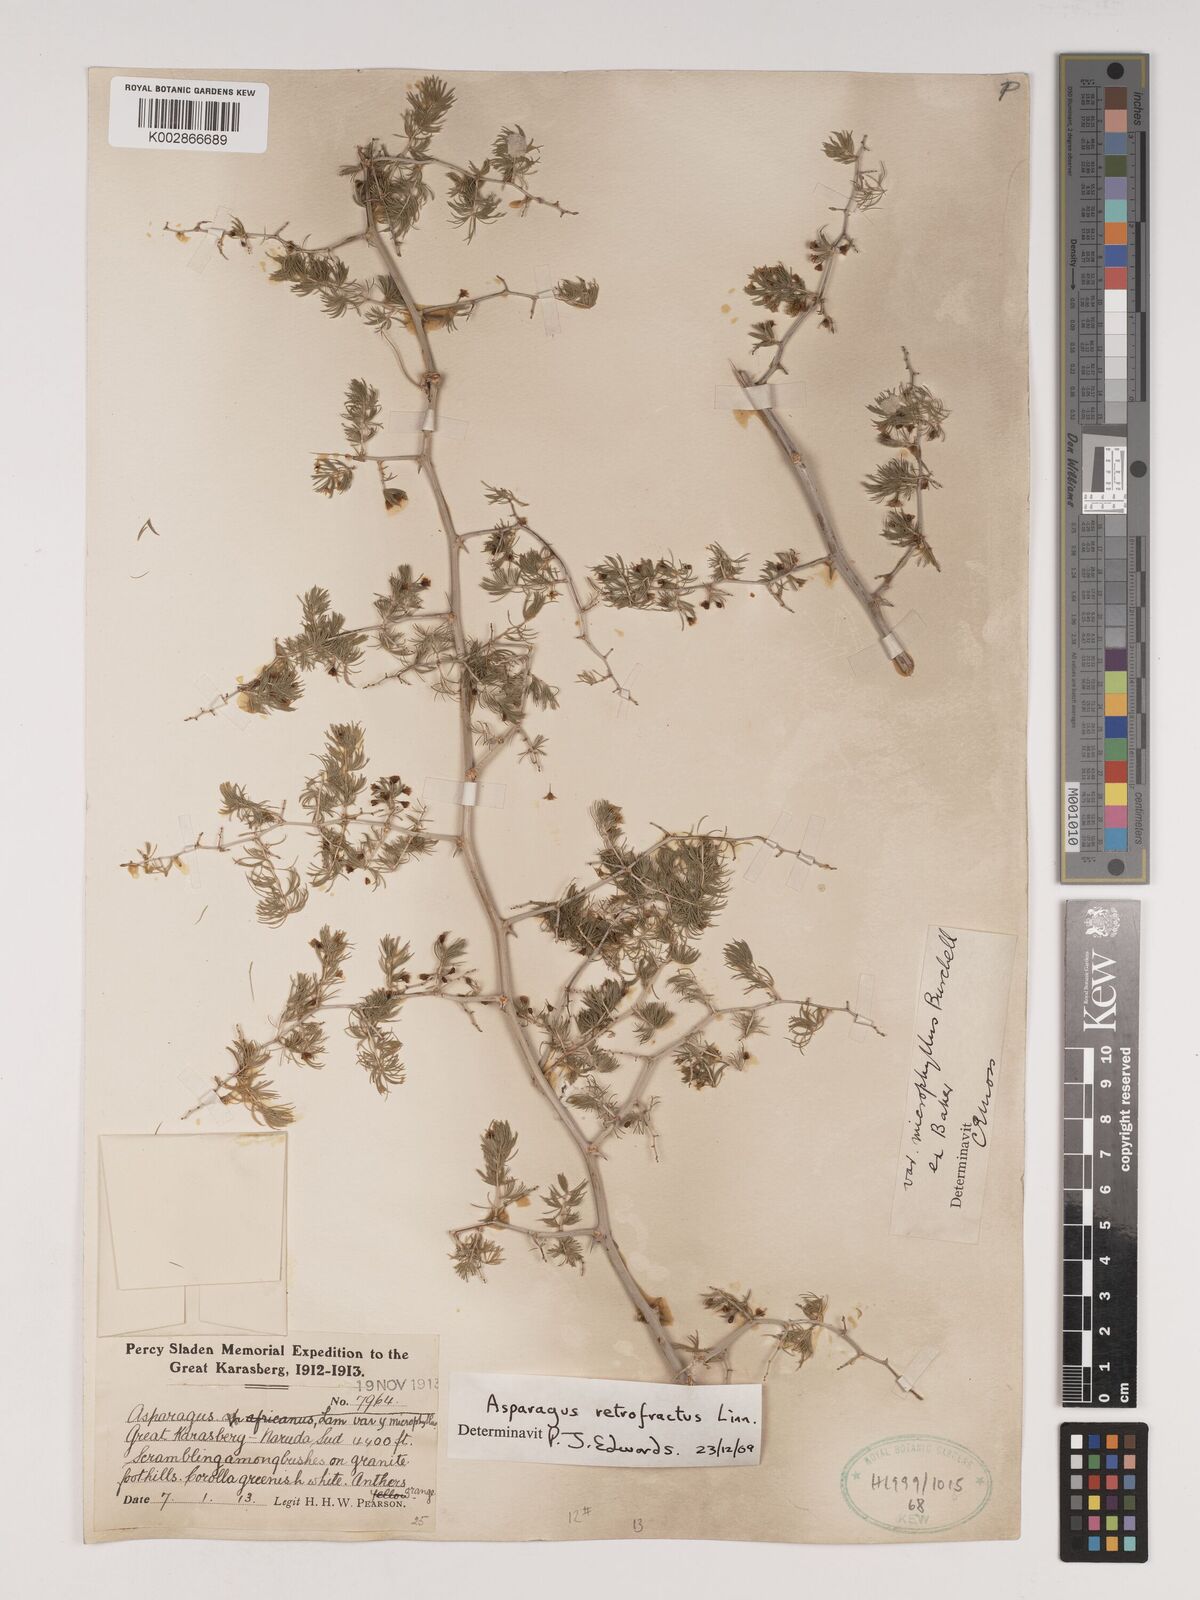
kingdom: Plantae
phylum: Tracheophyta
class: Liliopsida
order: Asparagales
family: Asparagaceae
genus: Asparagus
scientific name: Asparagus retrofractus
